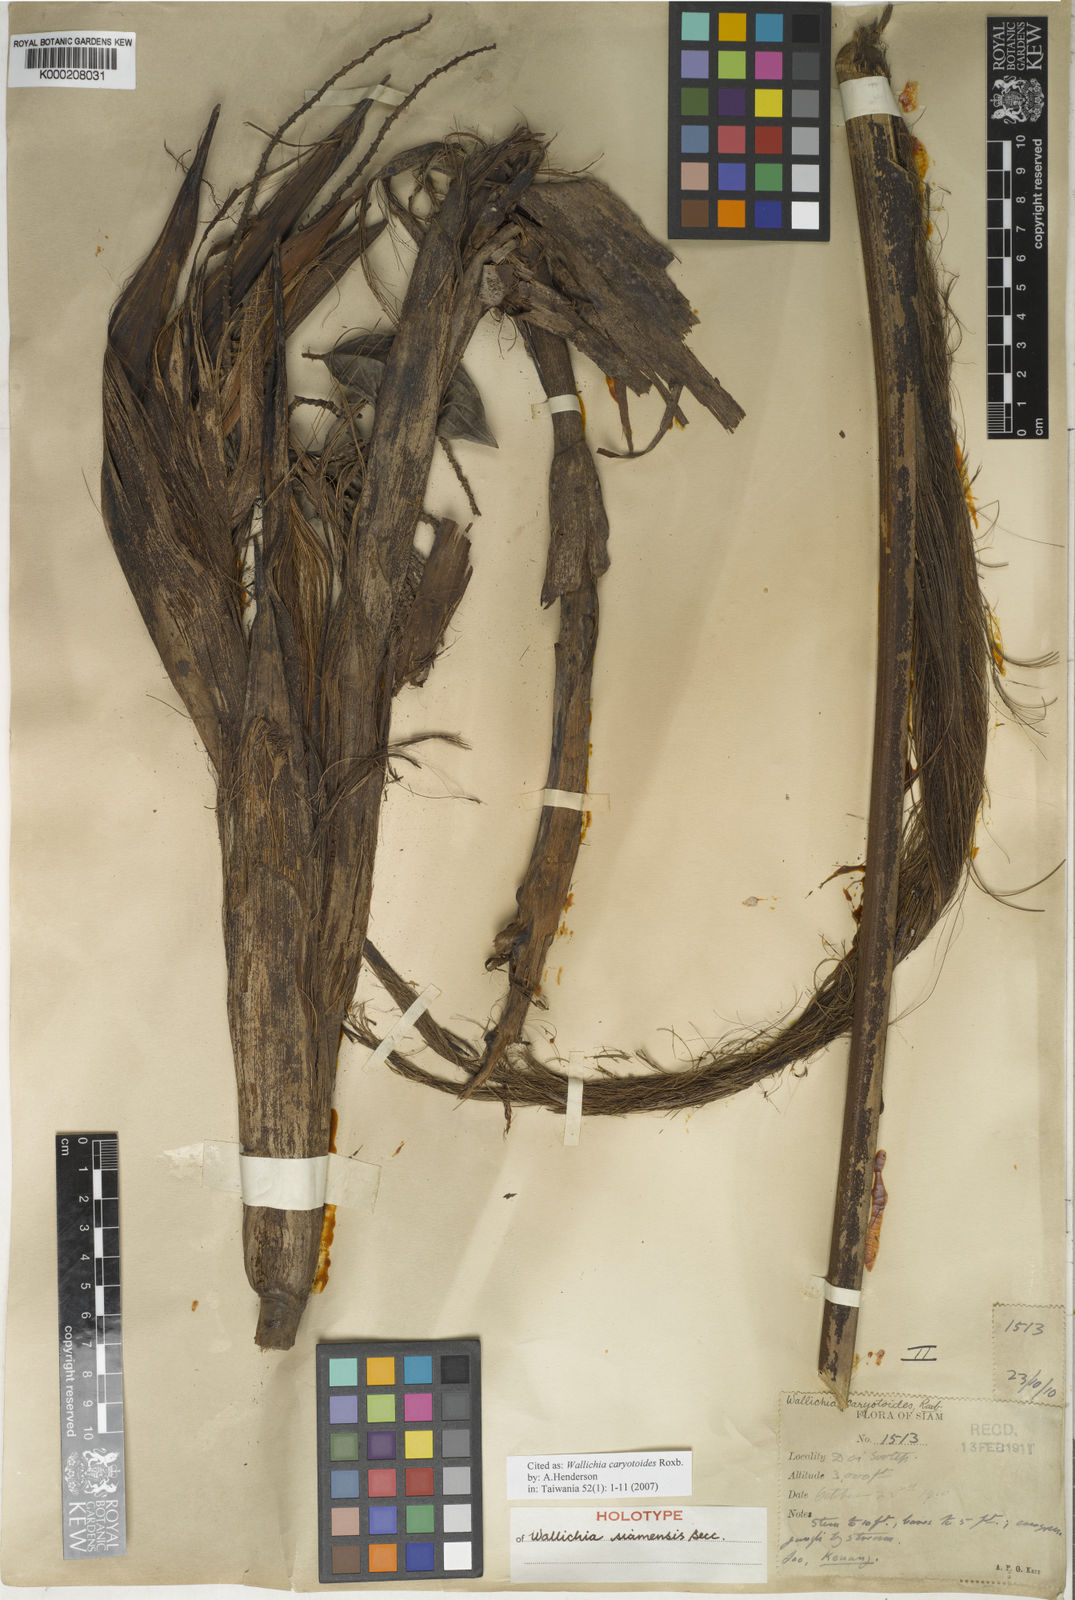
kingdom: Plantae
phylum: Tracheophyta
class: Liliopsida
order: Arecales
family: Arecaceae
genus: Wallichia
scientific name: Wallichia caryotoides
